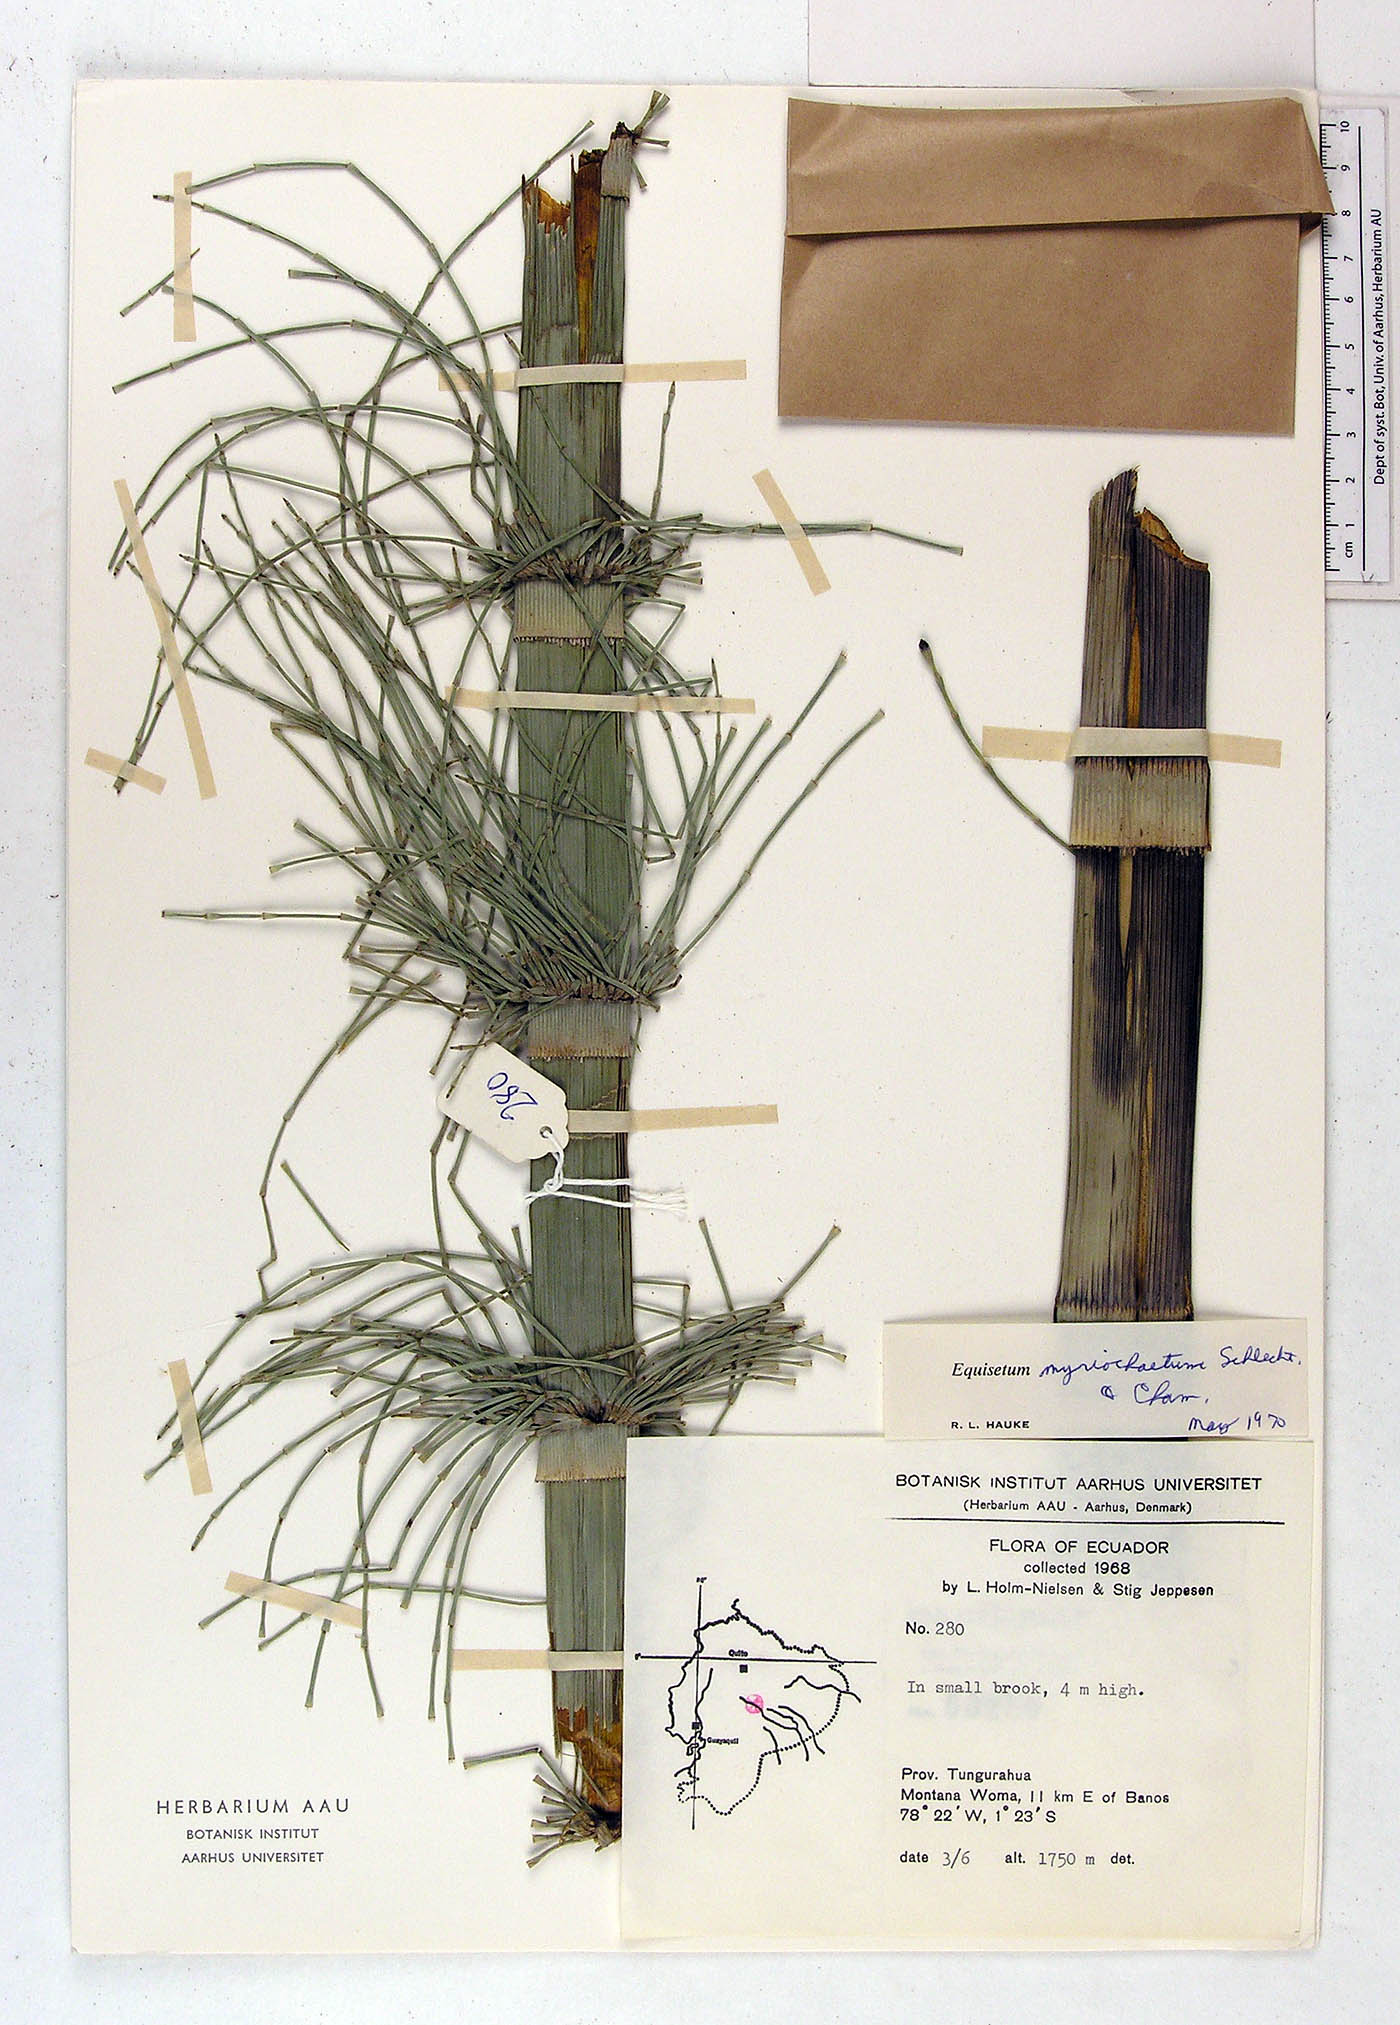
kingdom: Plantae
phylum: Tracheophyta
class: Polypodiopsida
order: Equisetales
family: Equisetaceae
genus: Equisetum
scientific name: Equisetum myriochaetum
